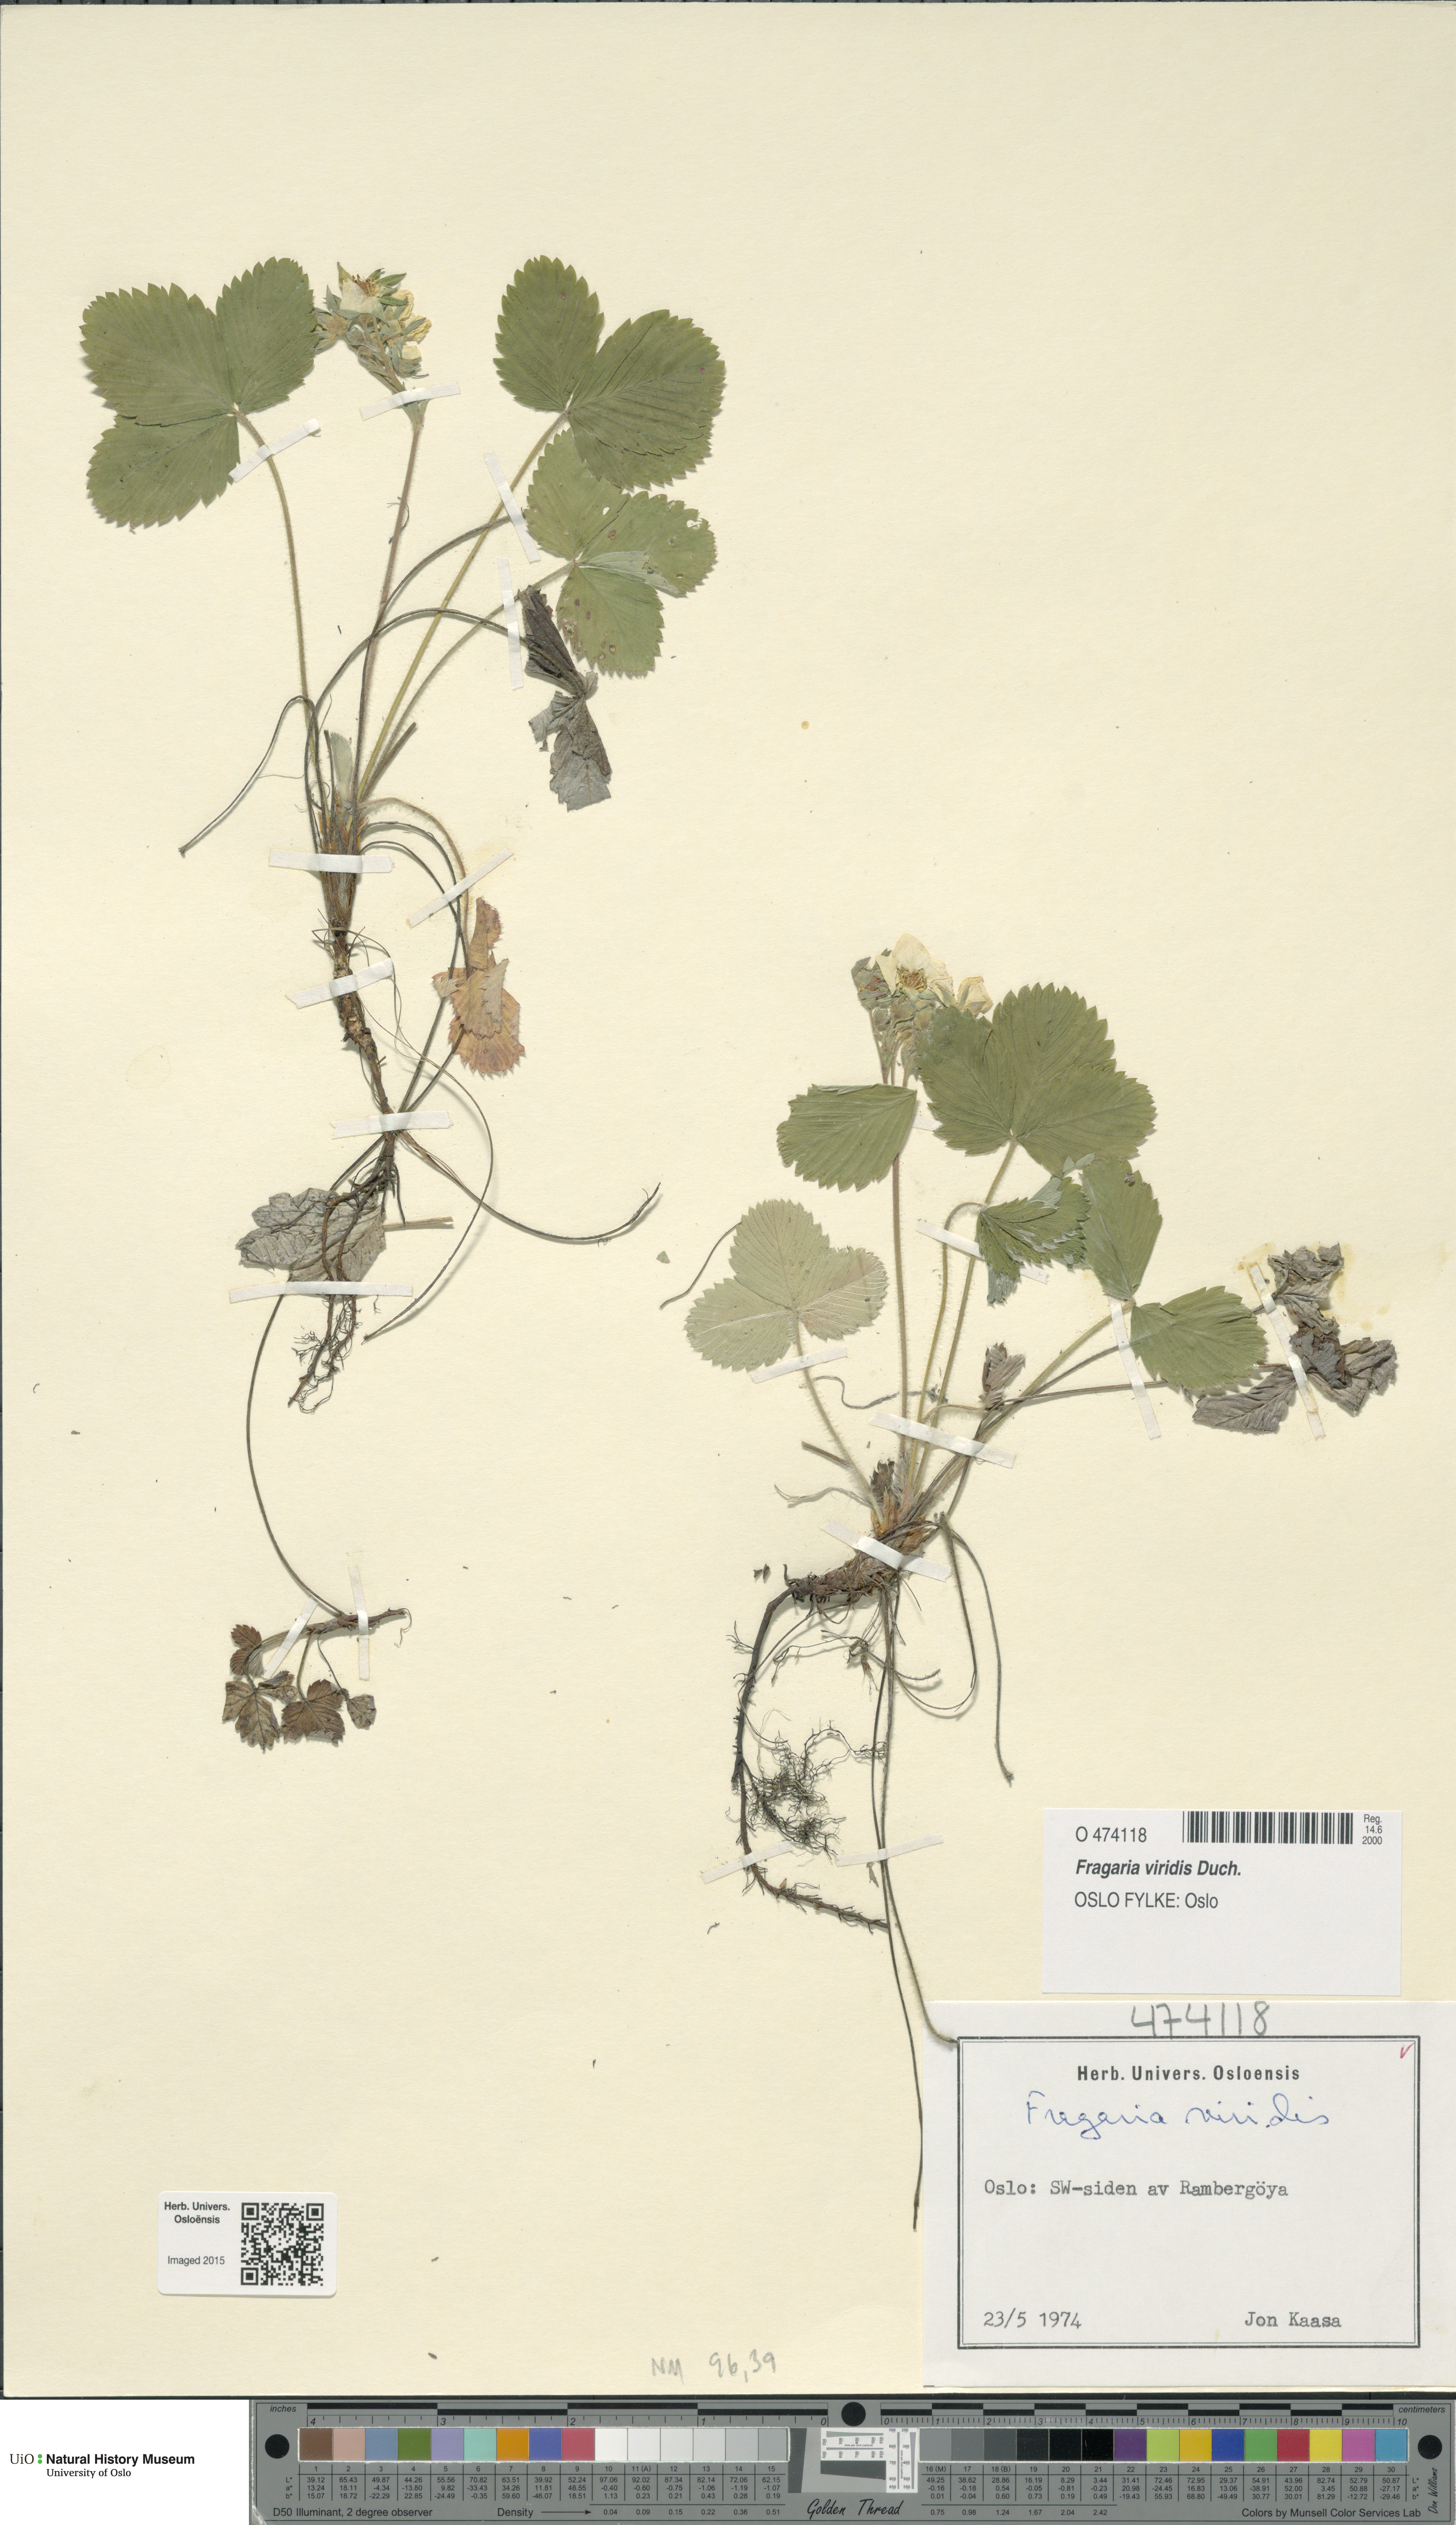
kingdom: Plantae
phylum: Tracheophyta
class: Magnoliopsida
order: Rosales
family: Rosaceae
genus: Fragaria
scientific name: Fragaria viridis
